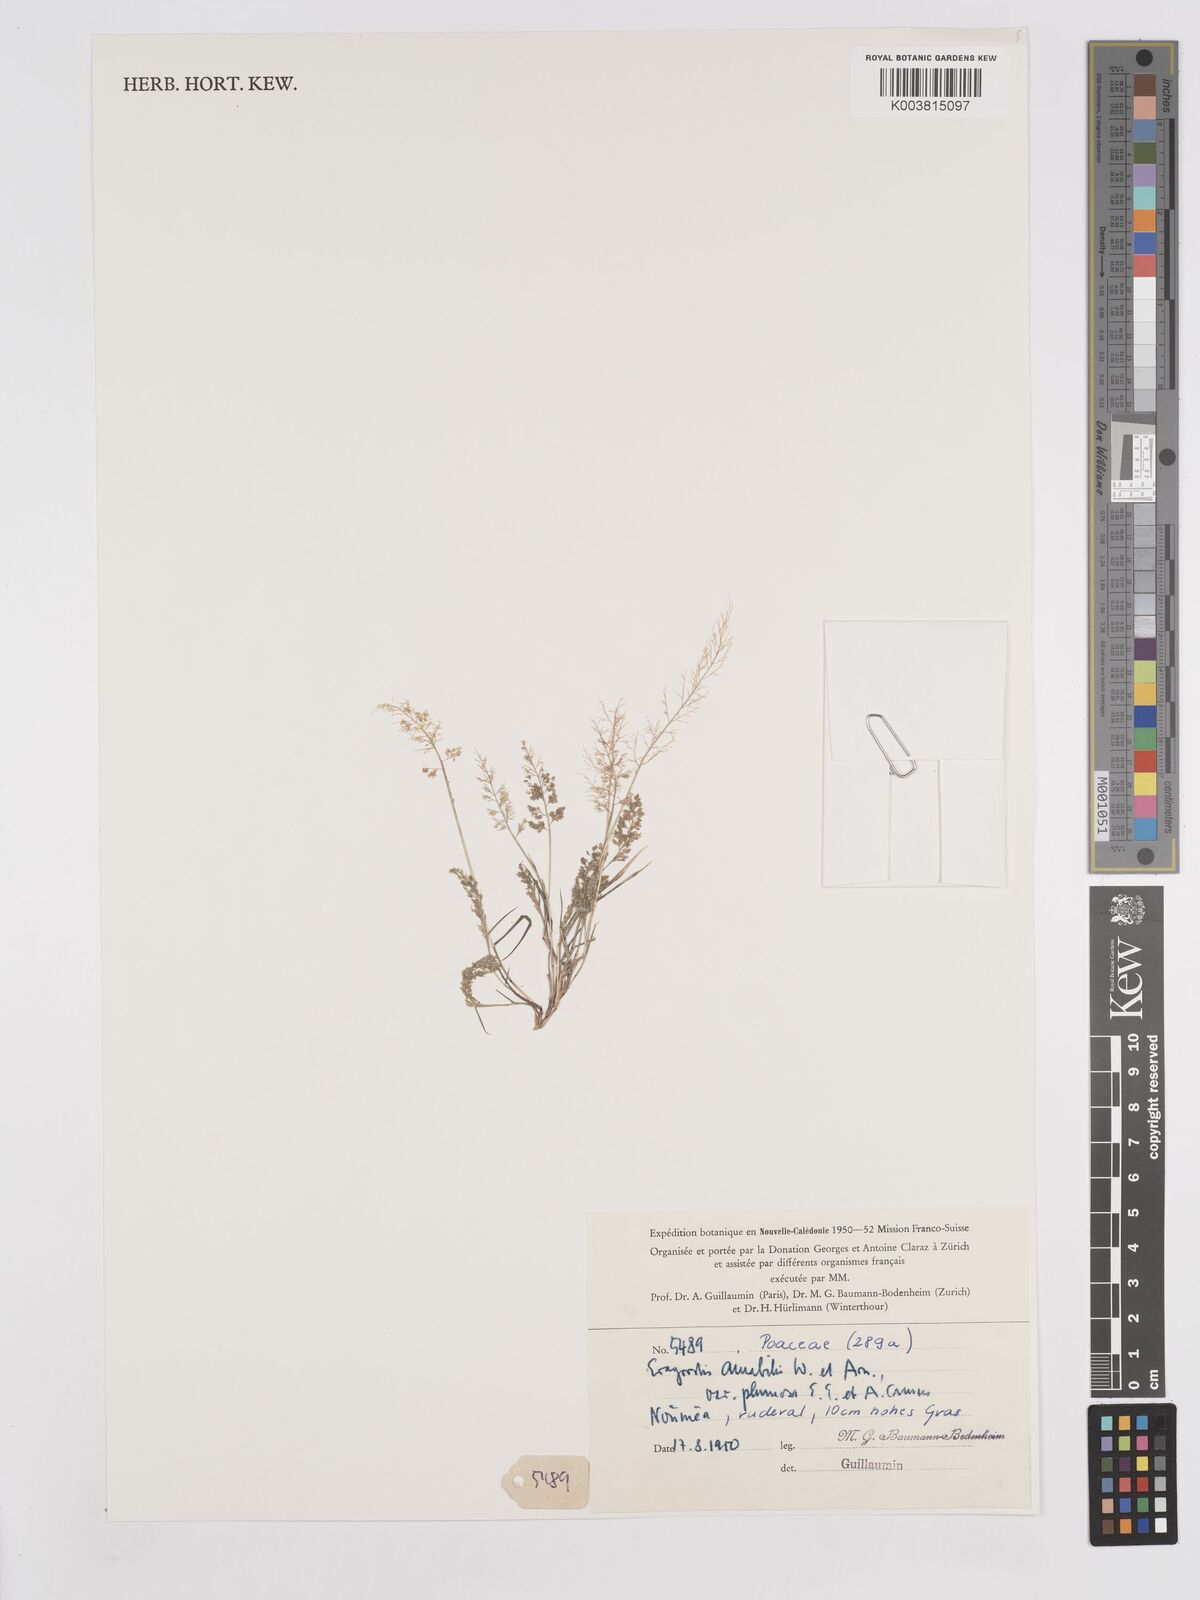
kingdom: Plantae
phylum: Tracheophyta
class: Liliopsida
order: Poales
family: Poaceae
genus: Eragrostis
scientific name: Eragrostis tenella
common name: Japanese lovegrass
